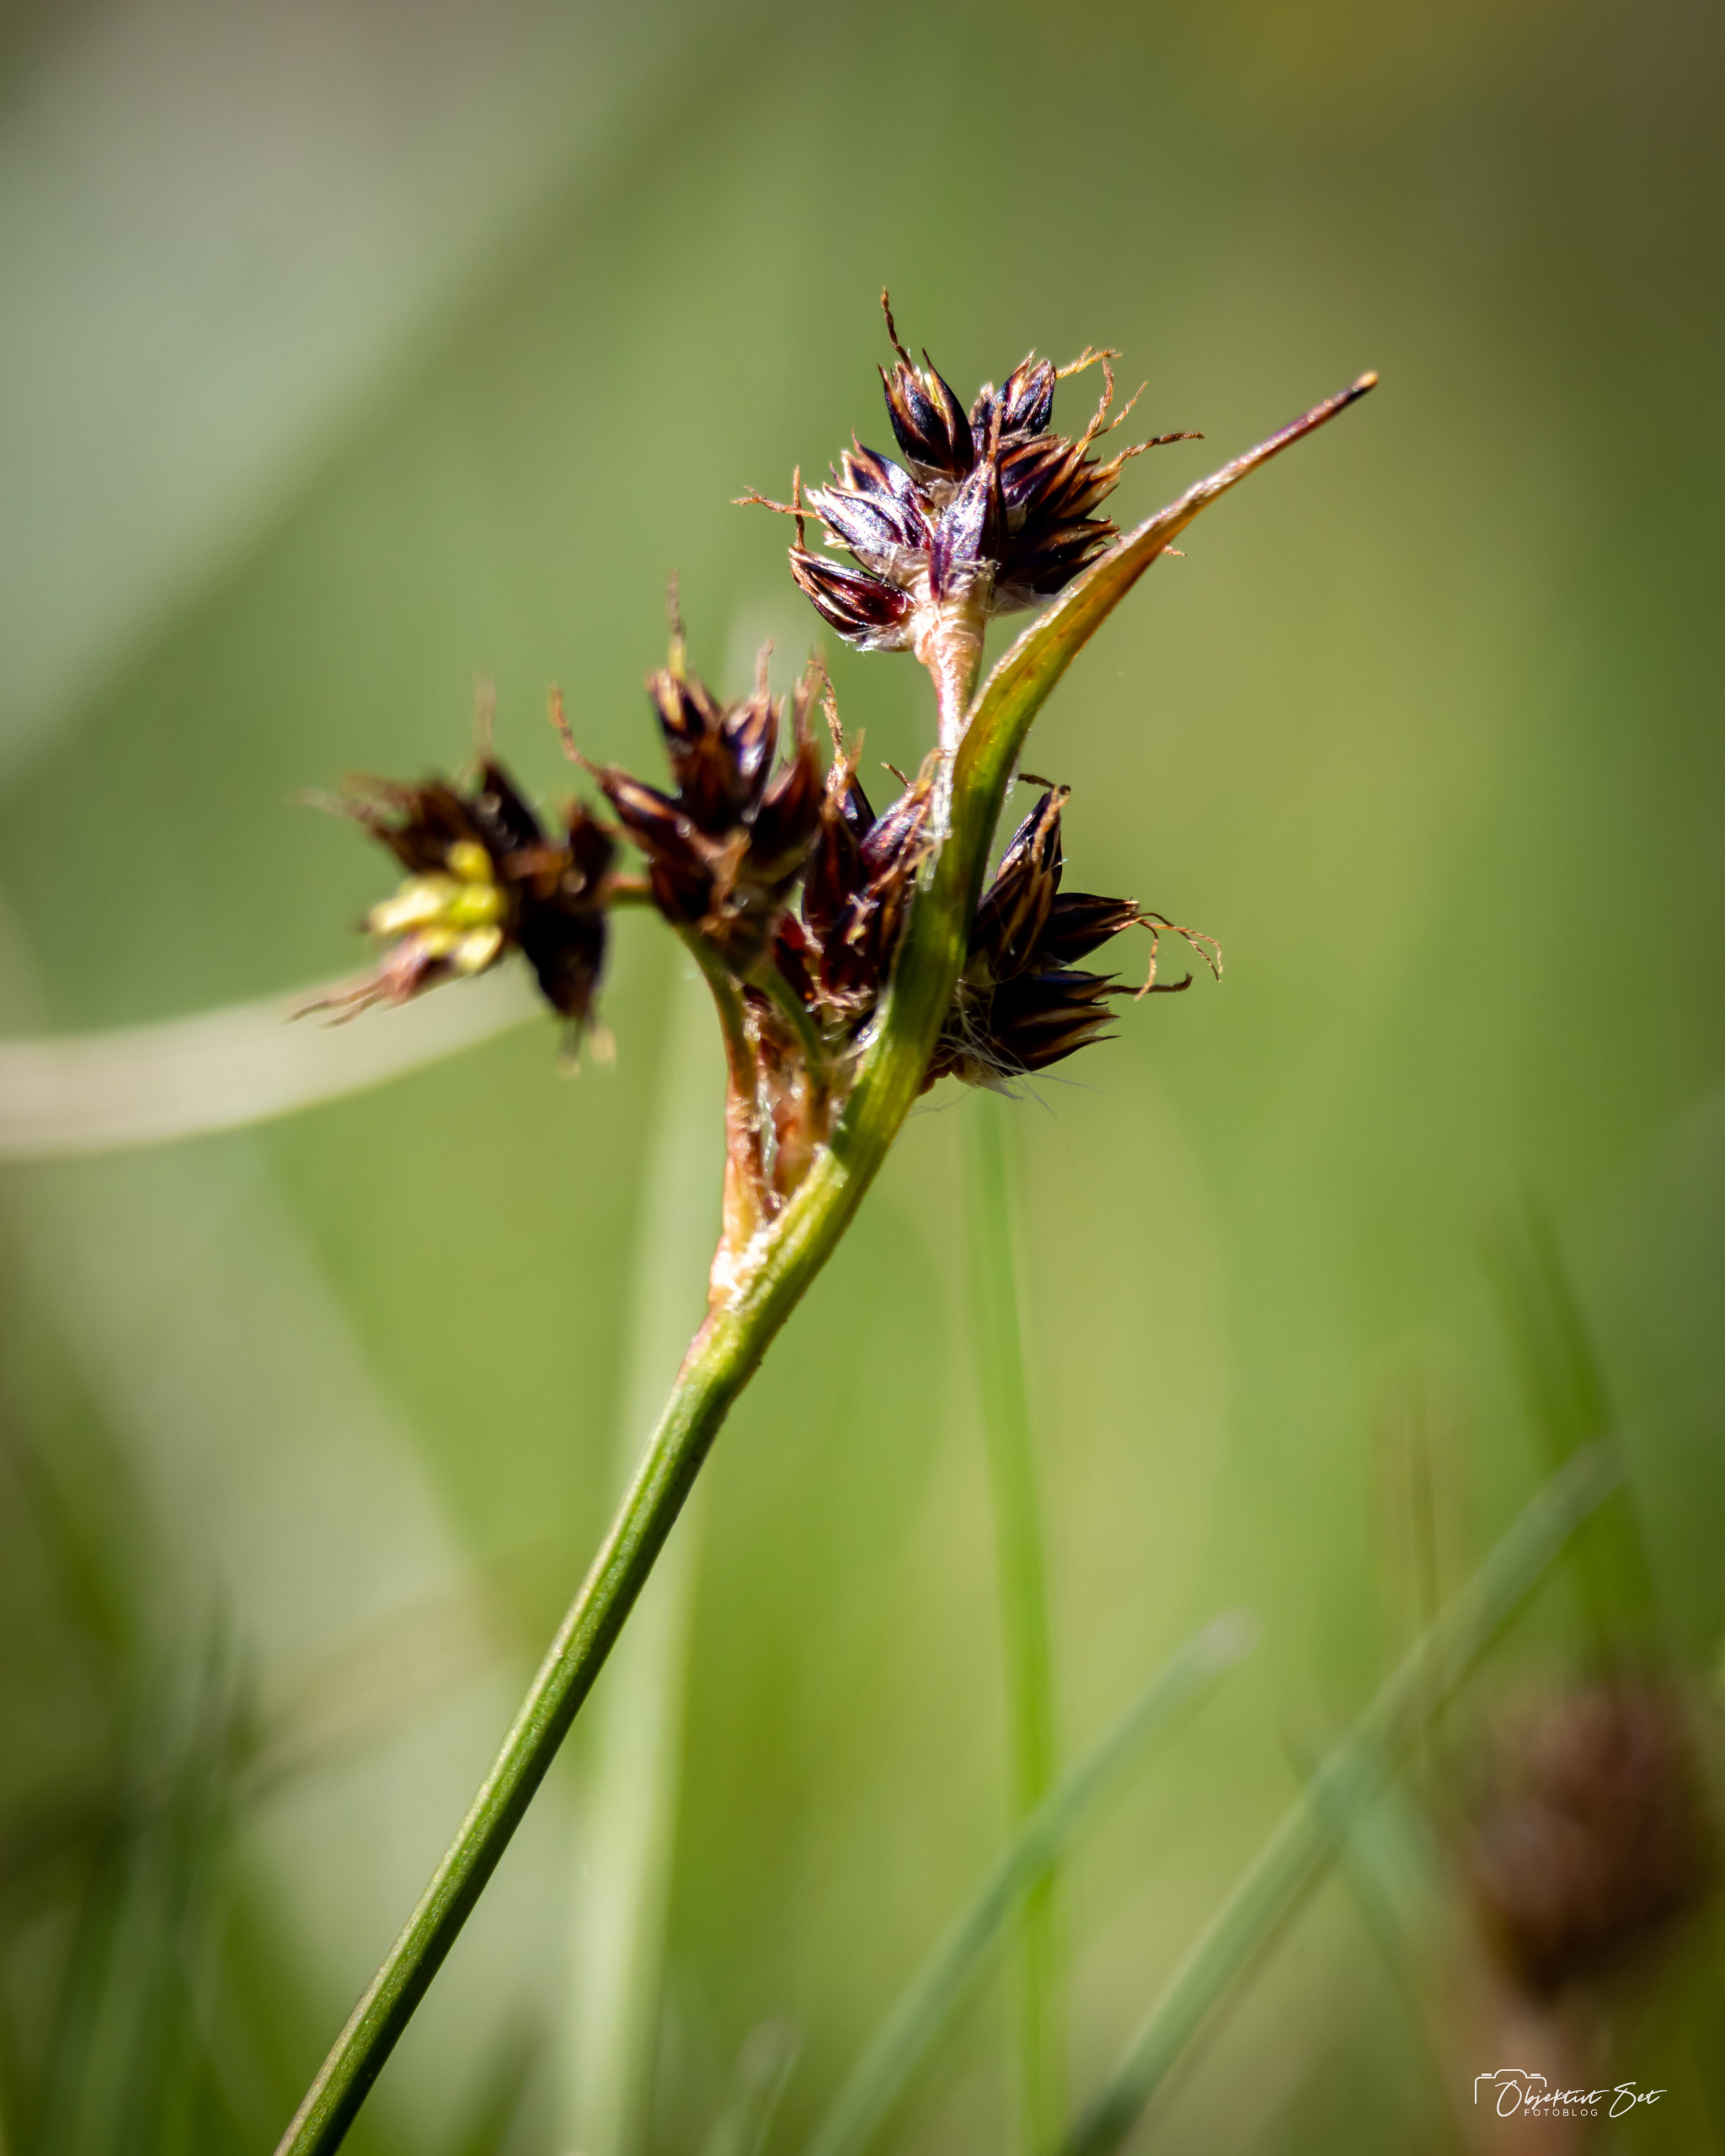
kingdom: Plantae
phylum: Tracheophyta
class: Liliopsida
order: Poales
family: Juncaceae
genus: Luzula
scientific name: Luzula campestris
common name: Mark-frytle
